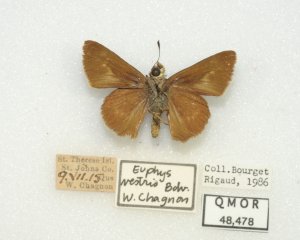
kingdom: Animalia
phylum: Arthropoda
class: Insecta
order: Lepidoptera
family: Hesperiidae
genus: Euphyes
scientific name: Euphyes vestris
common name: Dun Skipper
